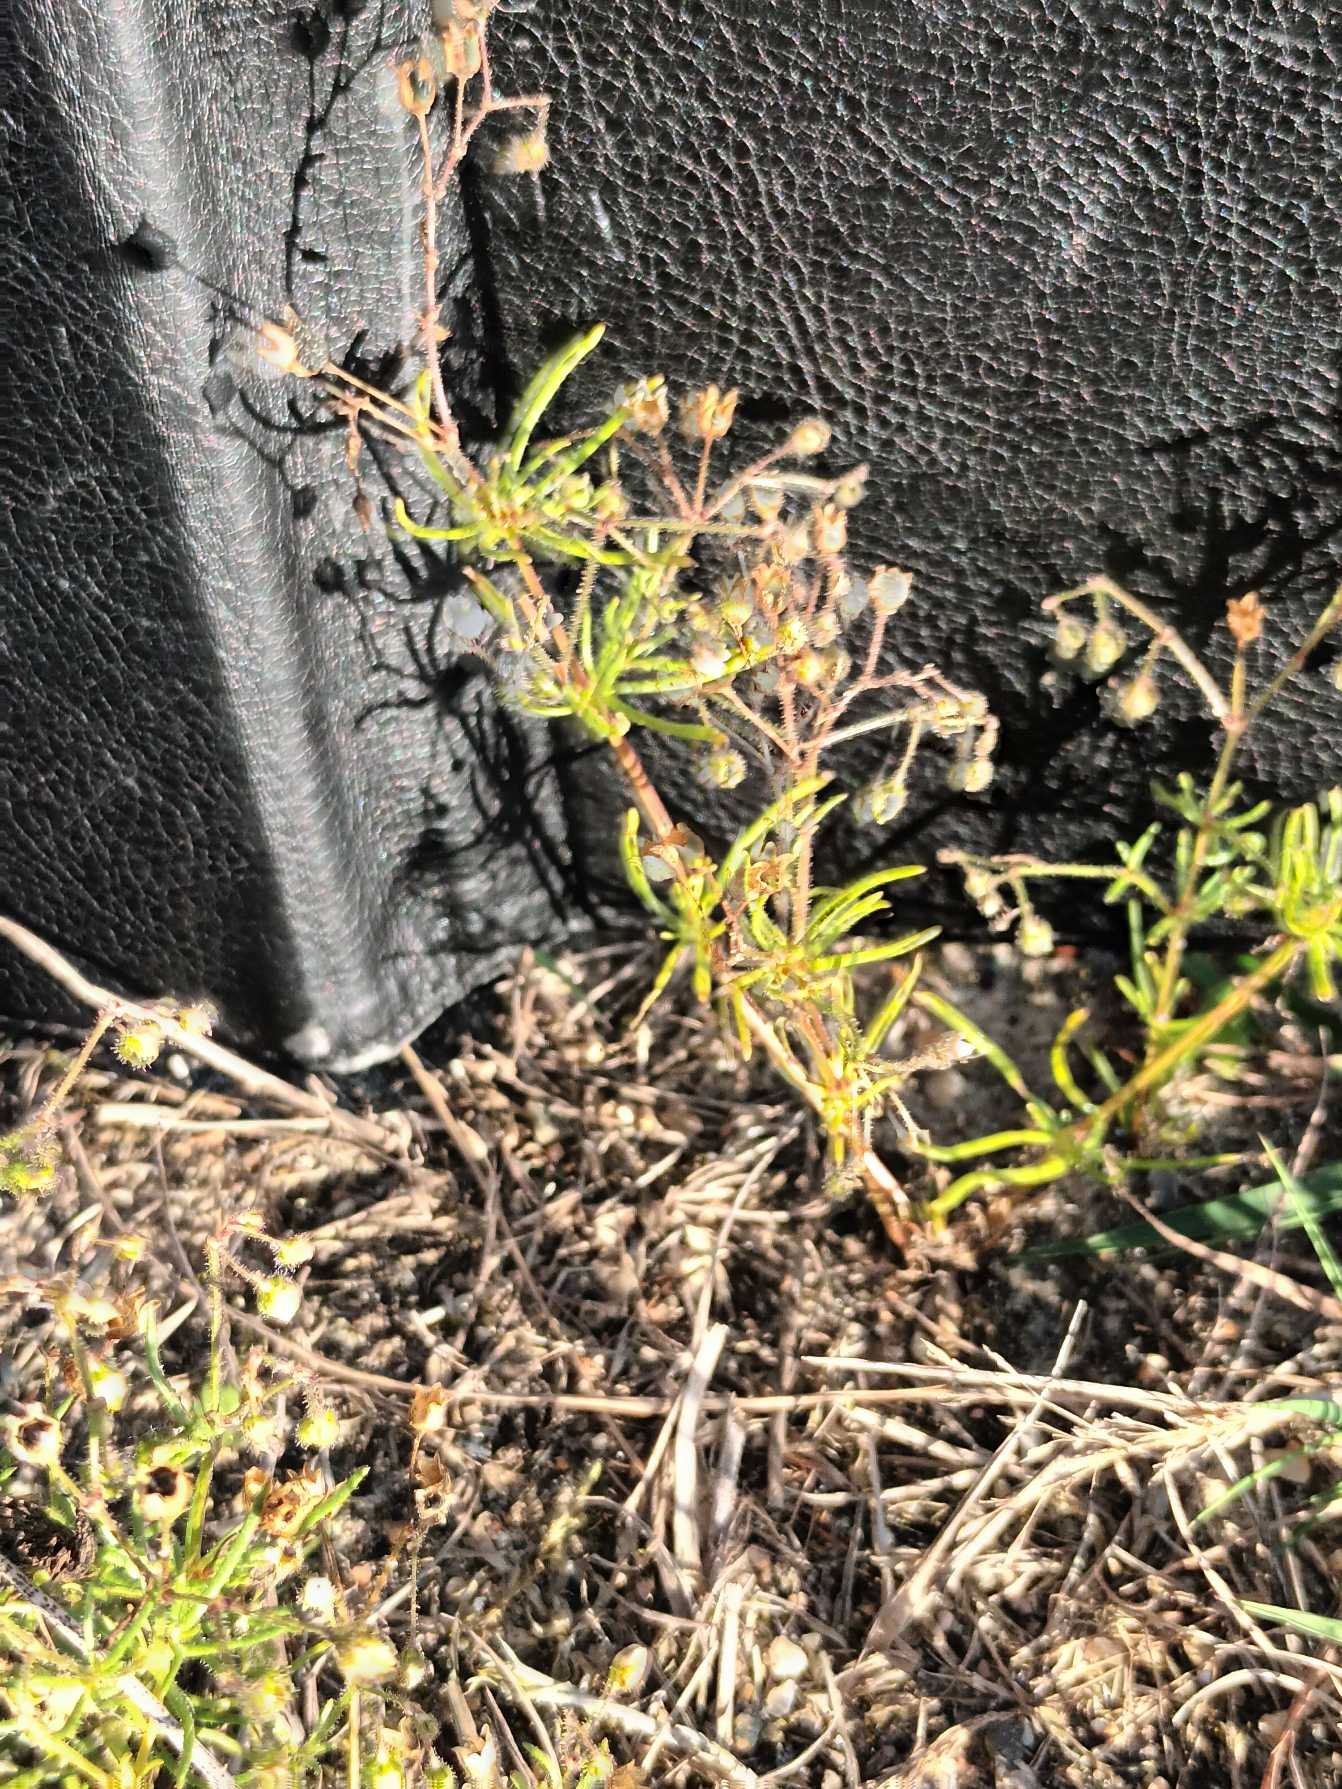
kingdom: Plantae
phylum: Tracheophyta
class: Magnoliopsida
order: Caryophyllales
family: Caryophyllaceae
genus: Spergula
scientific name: Spergula arvensis
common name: Almindelig spergel (underart)
